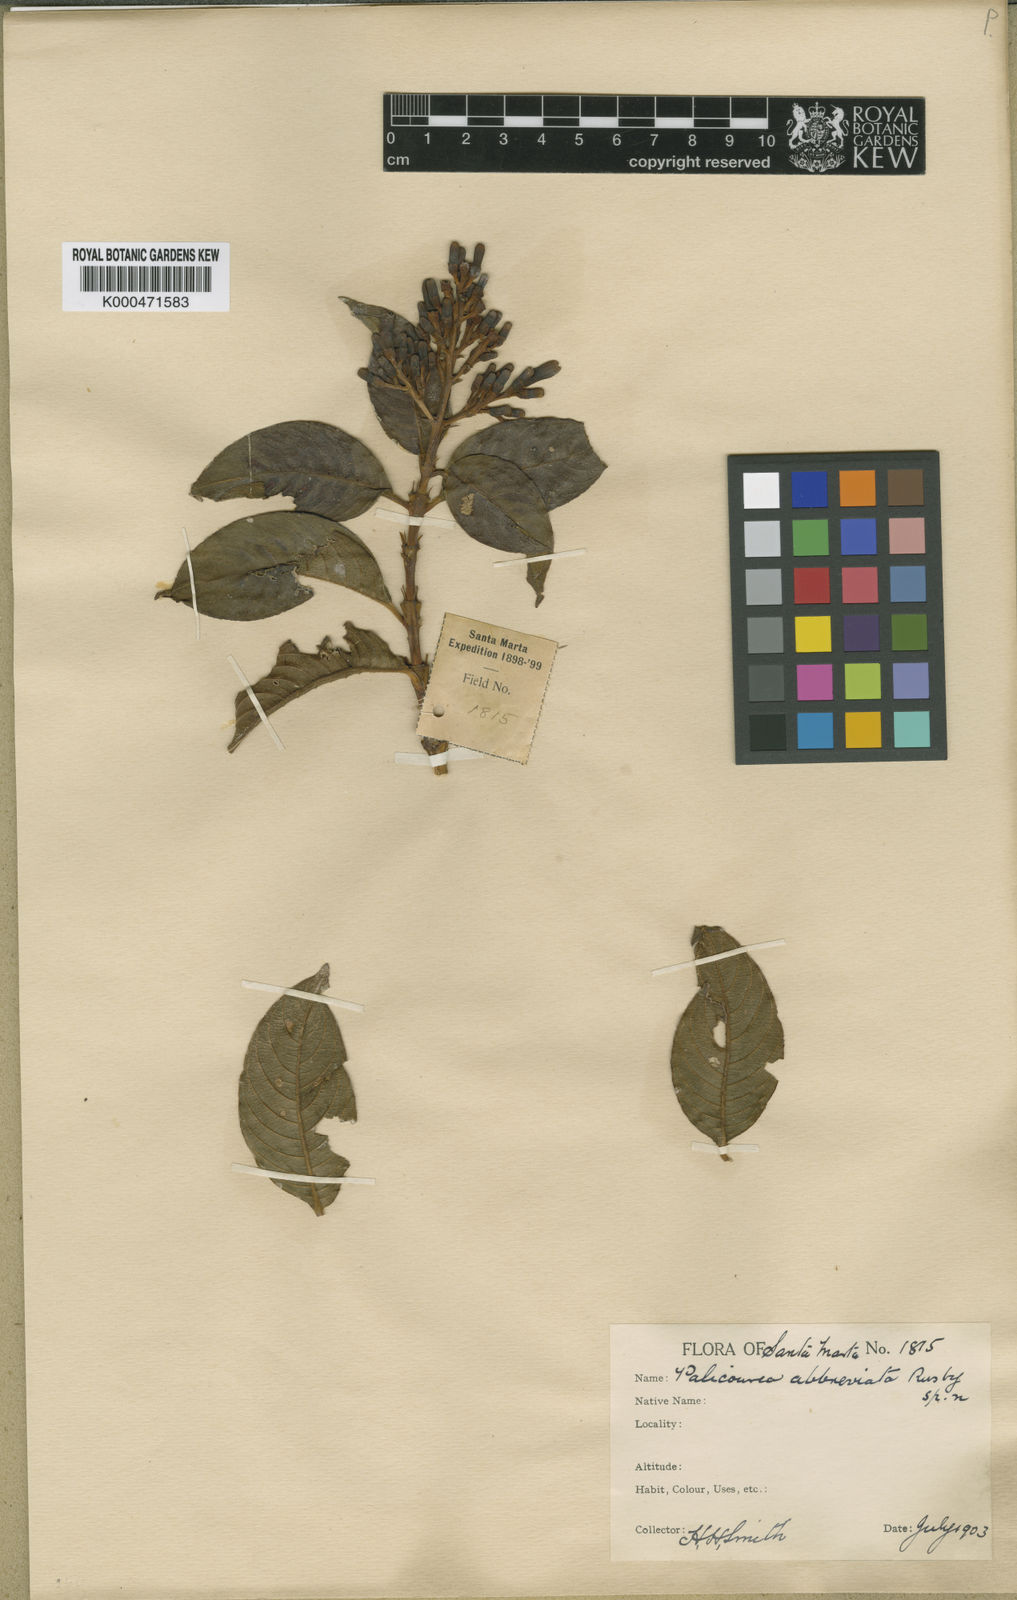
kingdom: Plantae
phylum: Tracheophyta
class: Magnoliopsida
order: Gentianales
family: Rubiaceae
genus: Palicourea
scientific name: Palicourea abbreviata
